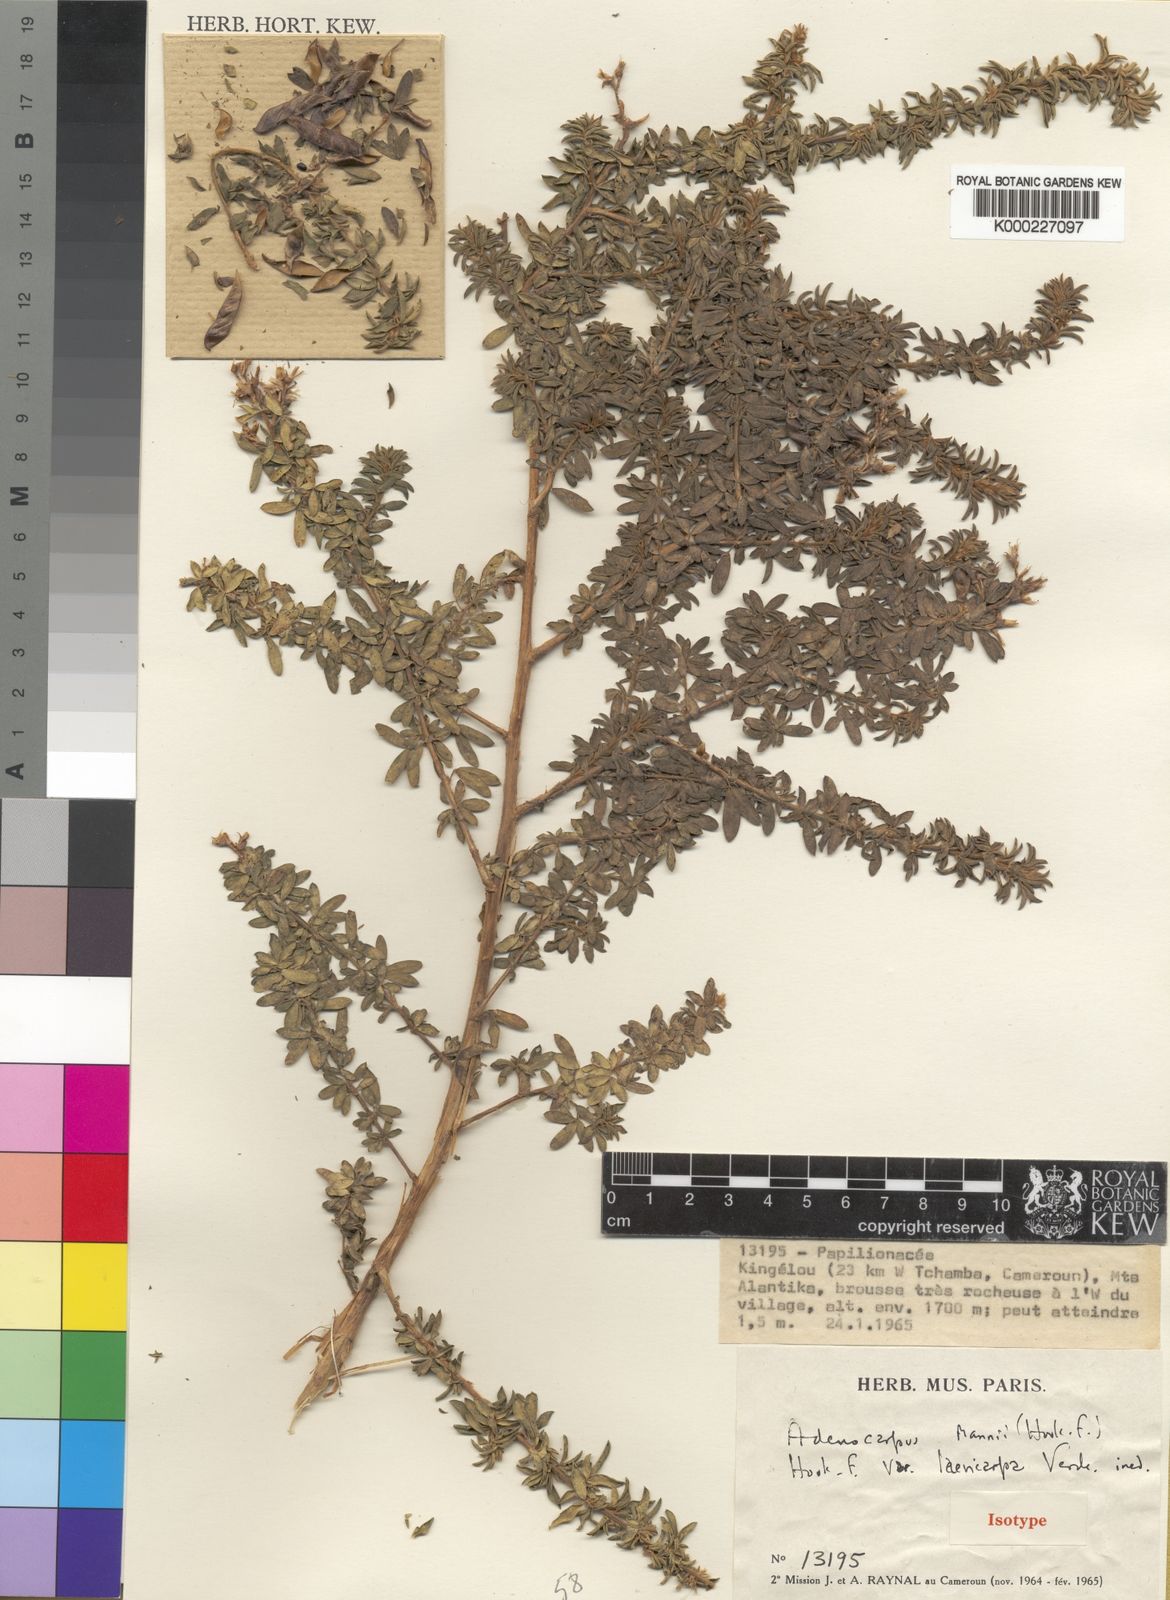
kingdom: Plantae
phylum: Tracheophyta
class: Magnoliopsida
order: Fabales
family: Fabaceae
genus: Adenocarpus
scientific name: Adenocarpus mannii
